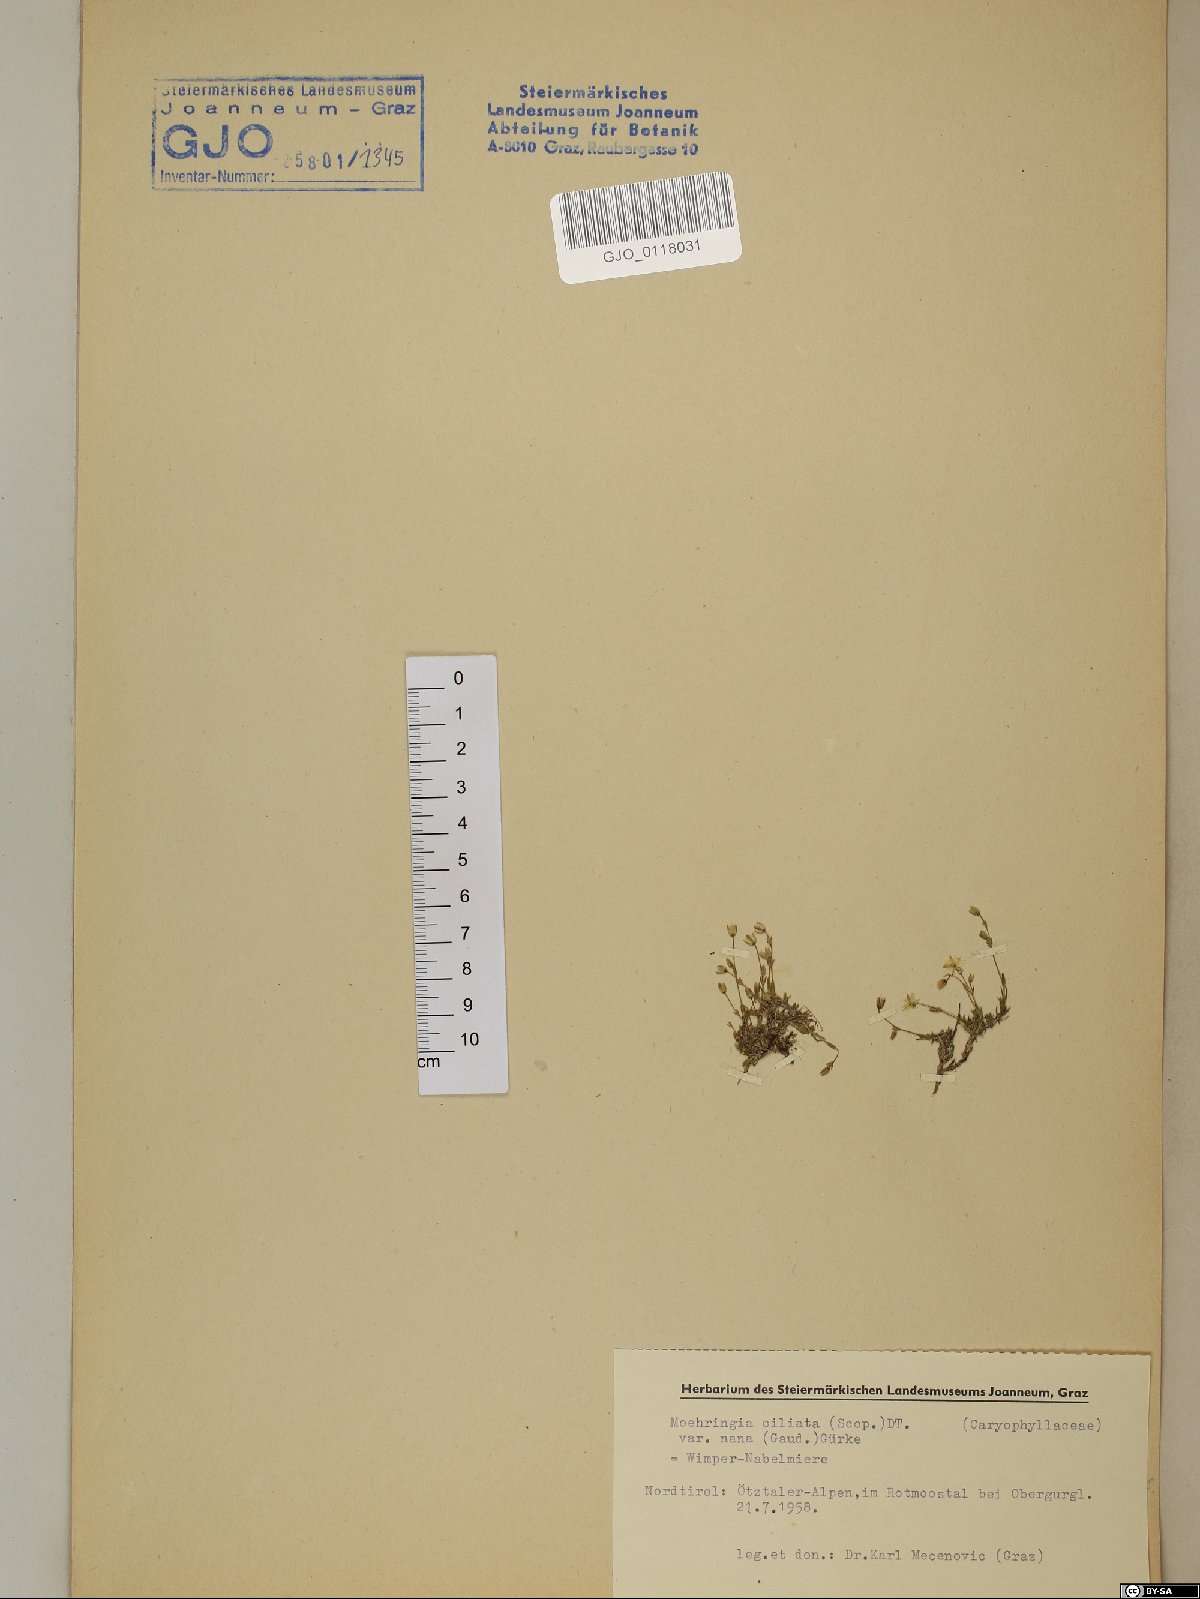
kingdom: Plantae
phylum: Tracheophyta
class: Magnoliopsida
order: Caryophyllales
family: Caryophyllaceae
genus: Moehringia
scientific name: Moehringia ciliata
